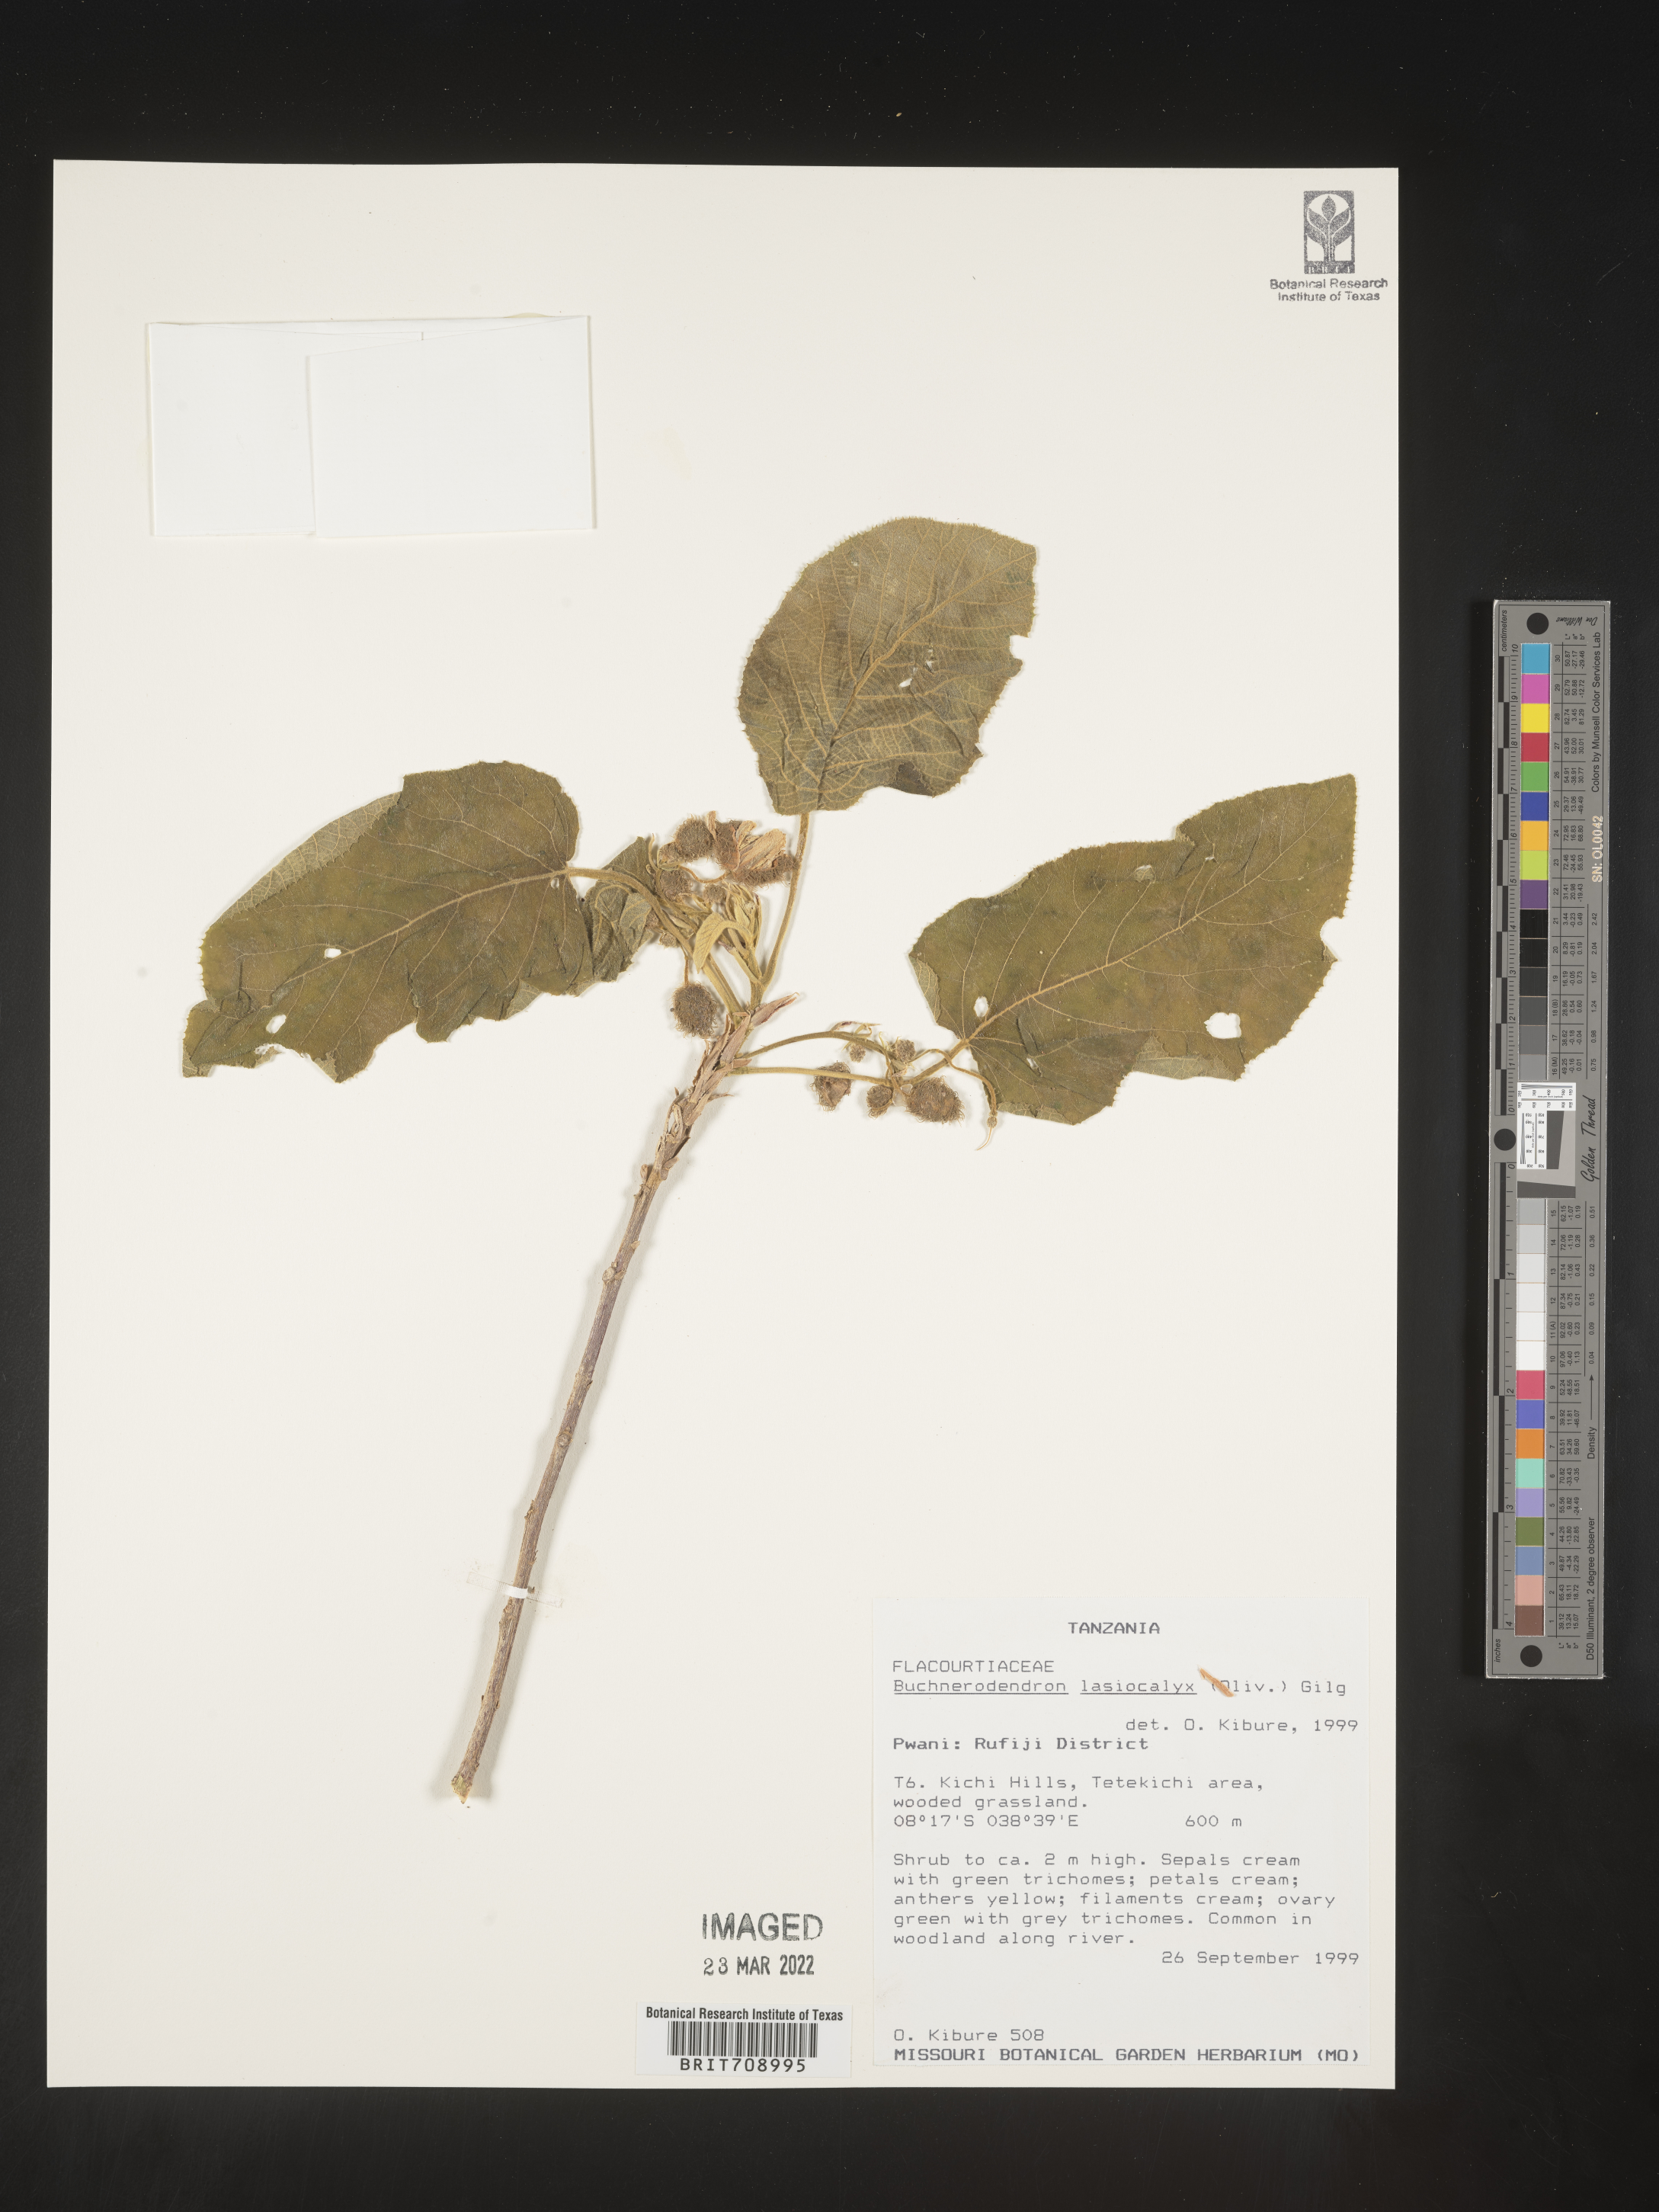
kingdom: Plantae
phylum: Tracheophyta
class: Magnoliopsida
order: Malpighiales
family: Achariaceae
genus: Buchnerodendron
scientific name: Buchnerodendron
